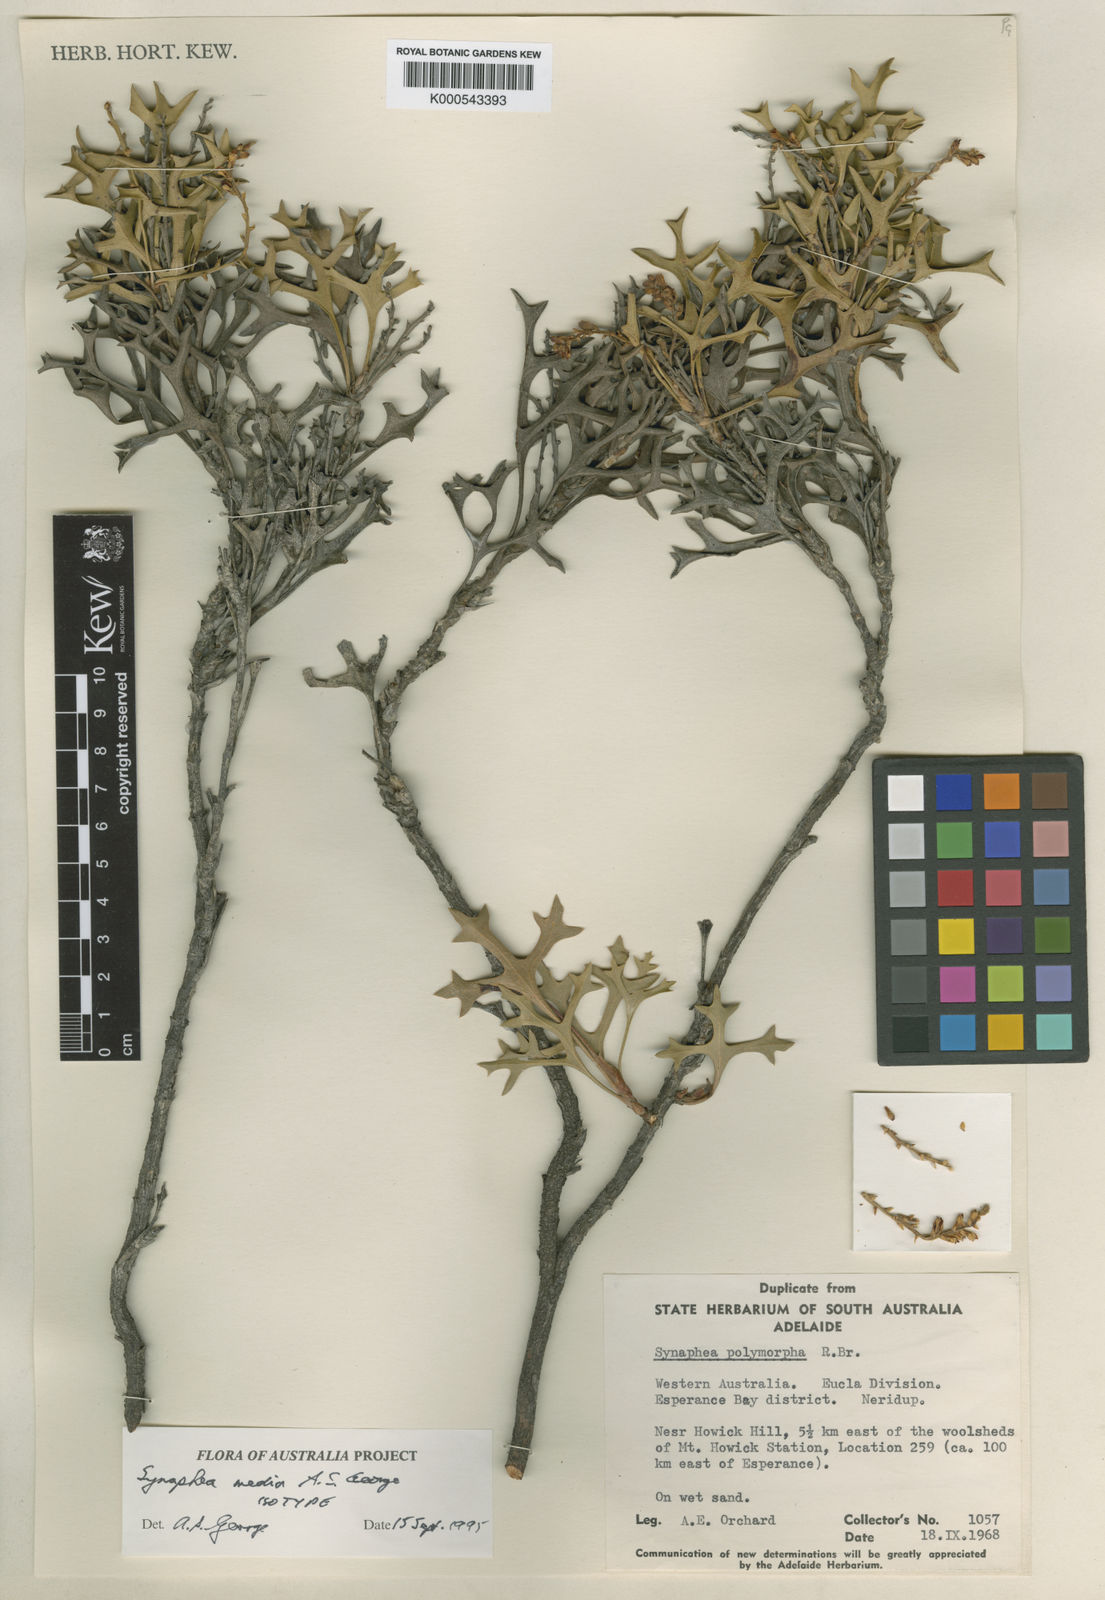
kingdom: Plantae
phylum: Tracheophyta
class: Magnoliopsida
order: Proteales
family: Proteaceae
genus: Synaphea
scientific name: Synaphea media
